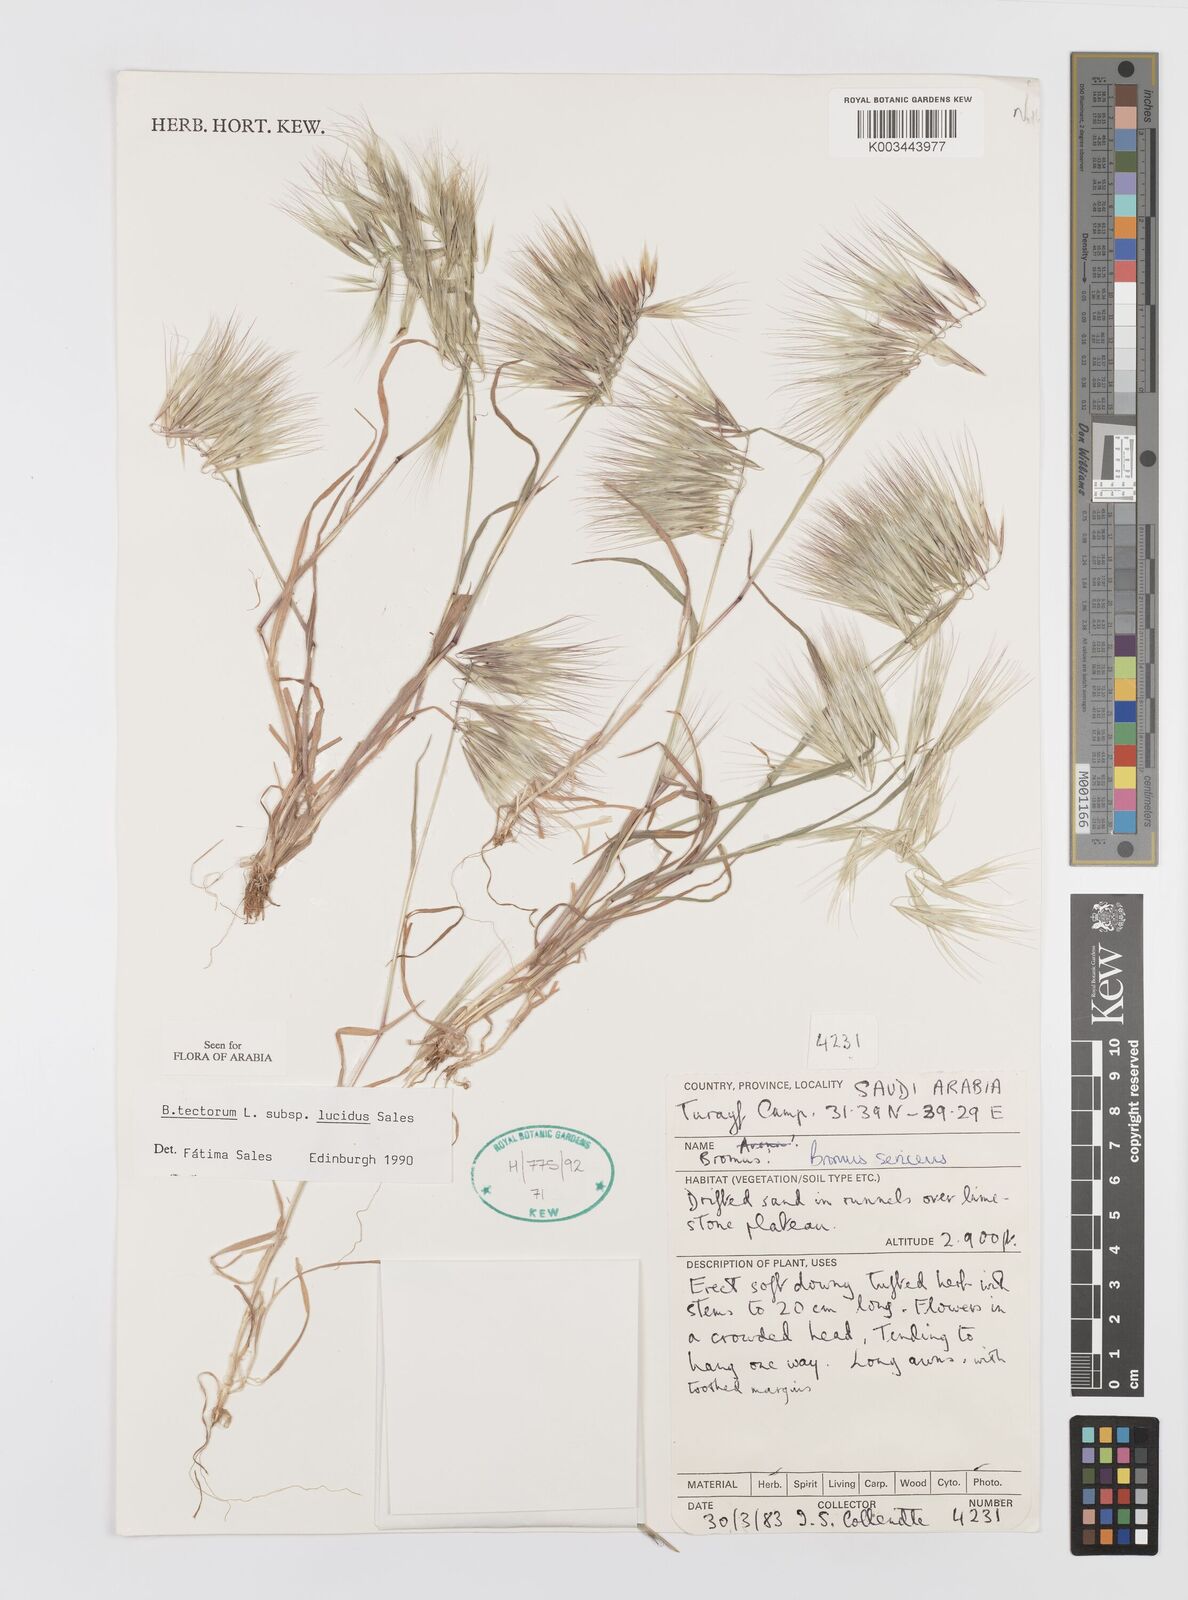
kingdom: Plantae
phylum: Tracheophyta
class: Liliopsida
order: Poales
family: Poaceae
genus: Bromus
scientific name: Bromus moeszii
